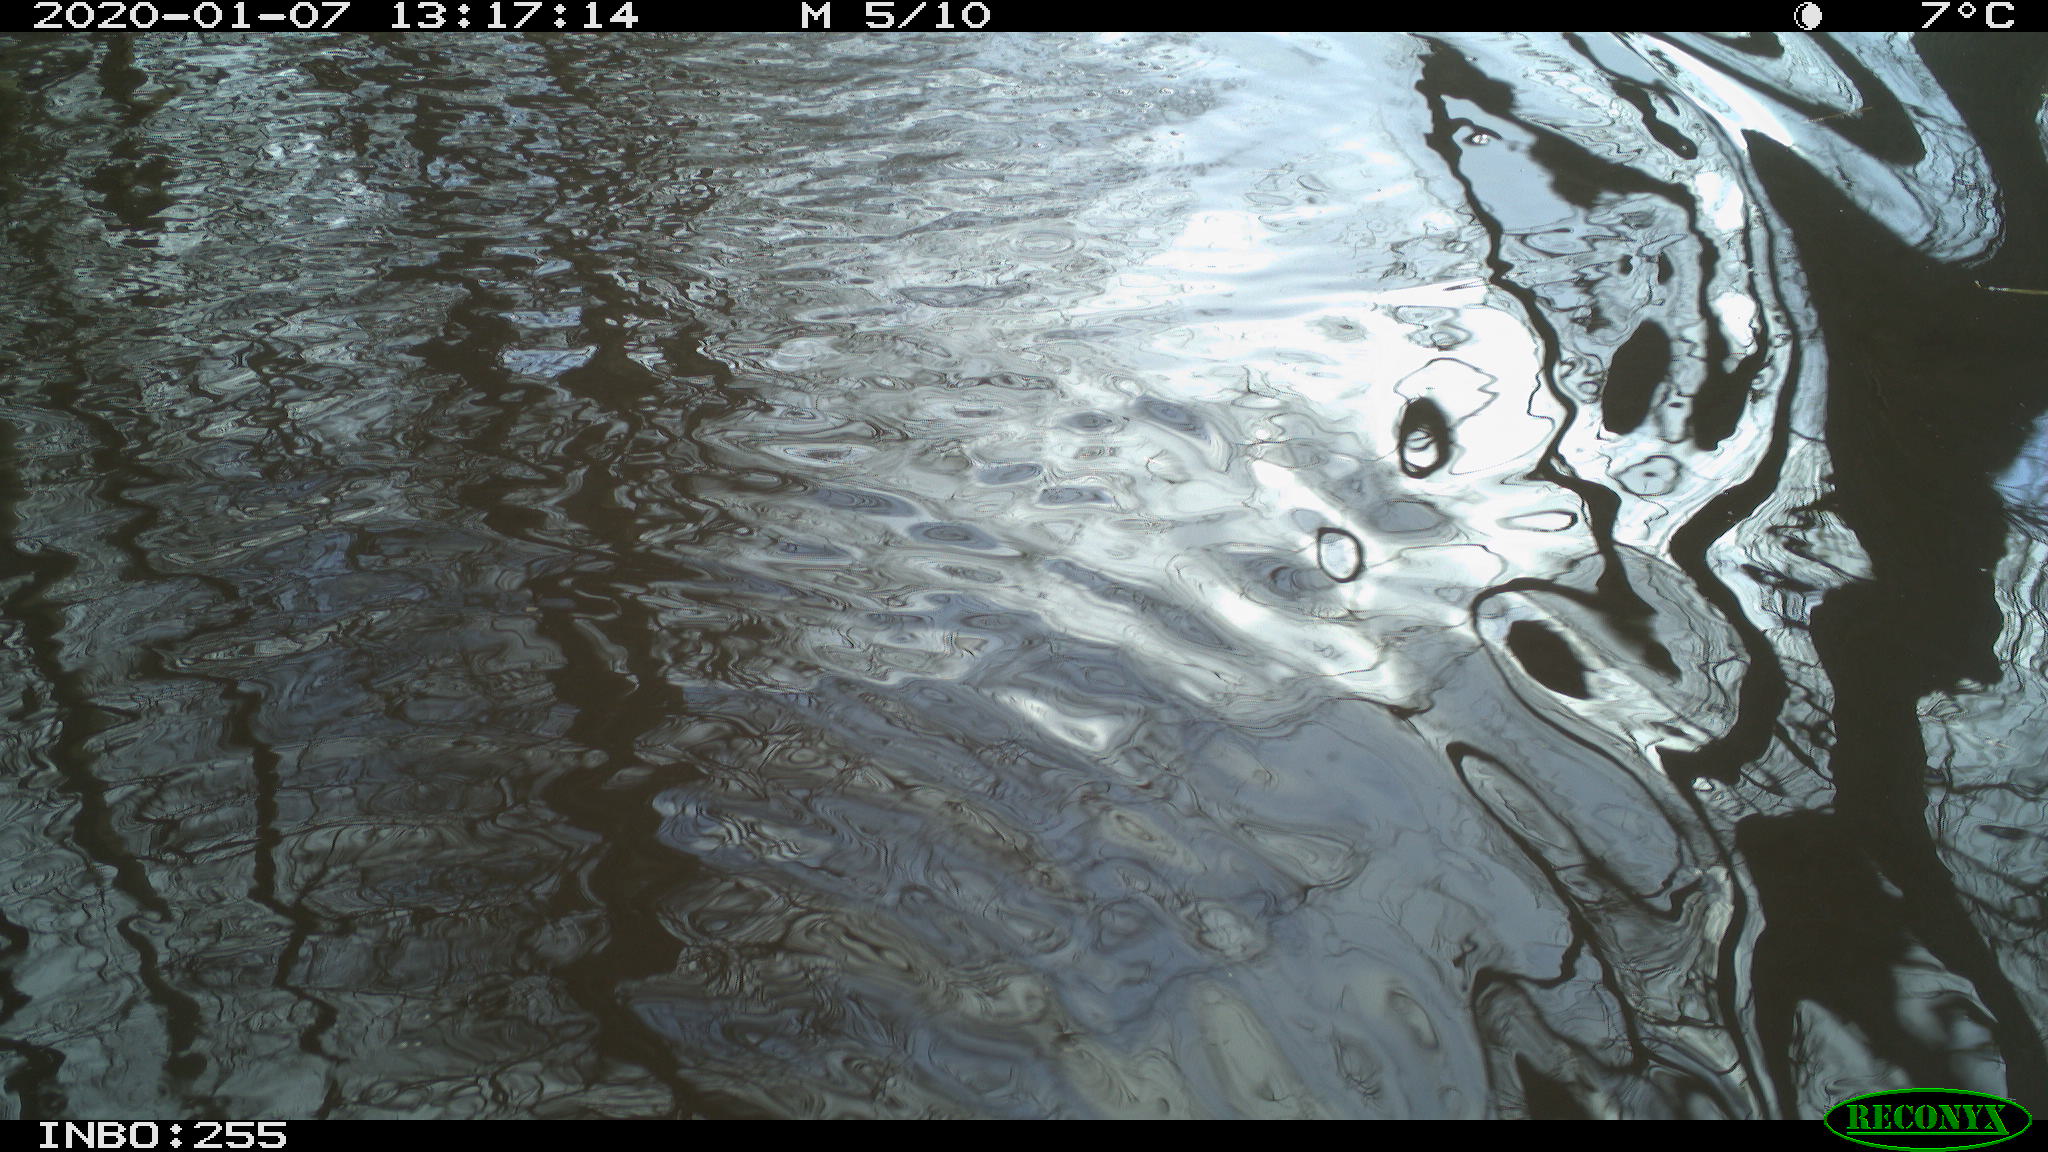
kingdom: Animalia
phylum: Chordata
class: Aves
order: Gruiformes
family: Rallidae
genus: Gallinula
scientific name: Gallinula chloropus
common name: Common moorhen
